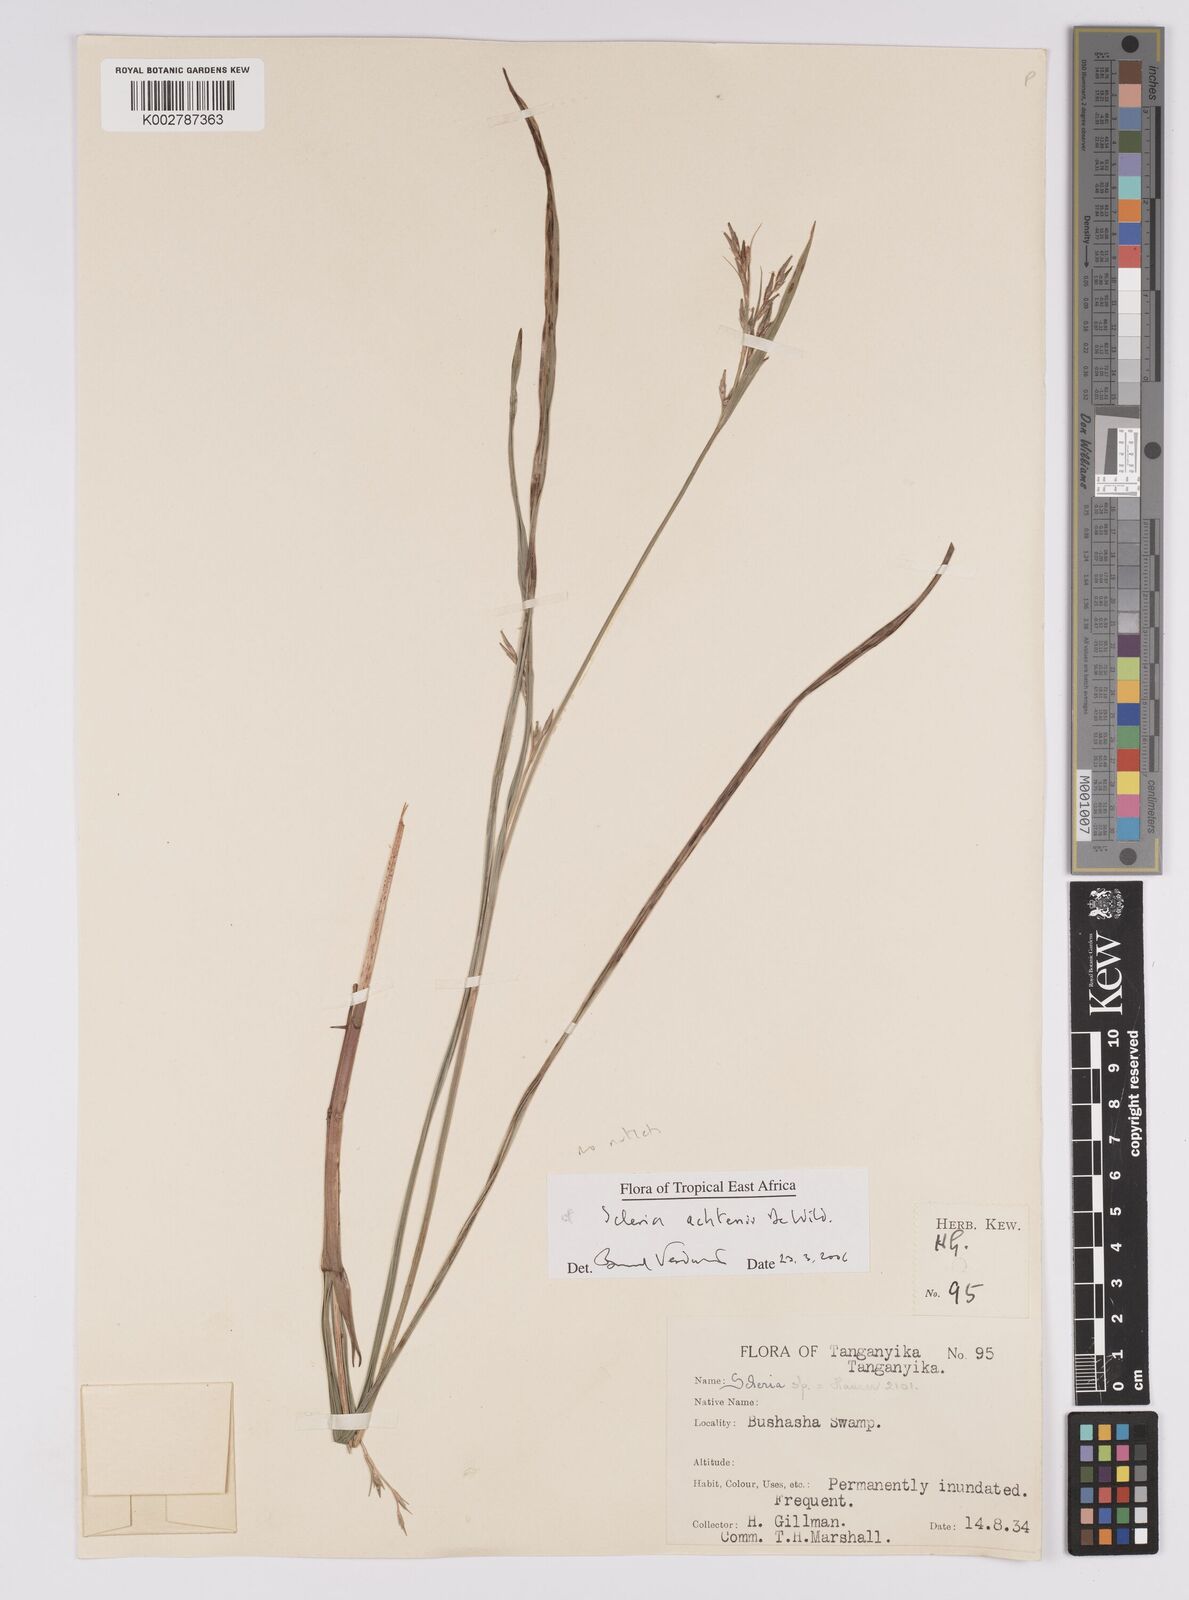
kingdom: Plantae
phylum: Tracheophyta
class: Liliopsida
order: Poales
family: Cyperaceae
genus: Scleria
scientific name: Scleria achtenii
